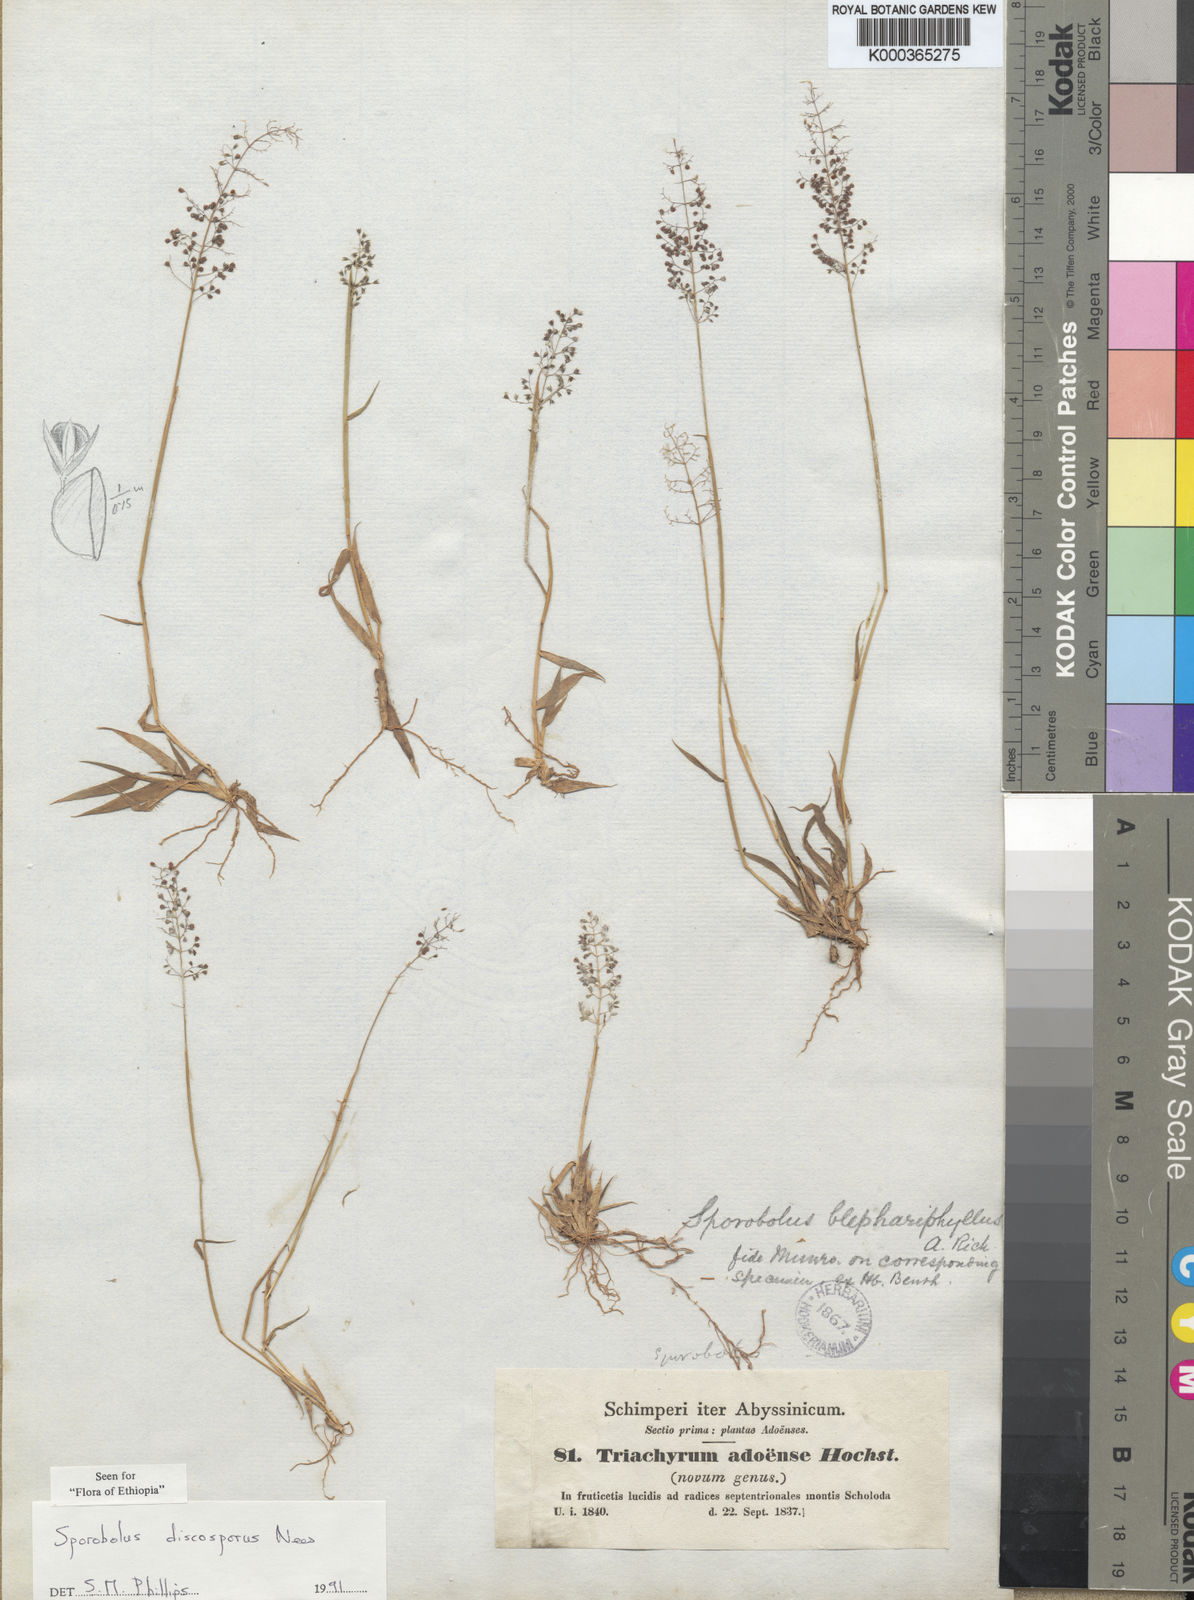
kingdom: Plantae
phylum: Tracheophyta
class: Liliopsida
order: Poales
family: Poaceae
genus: Sporobolus
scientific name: Sporobolus discosporus
